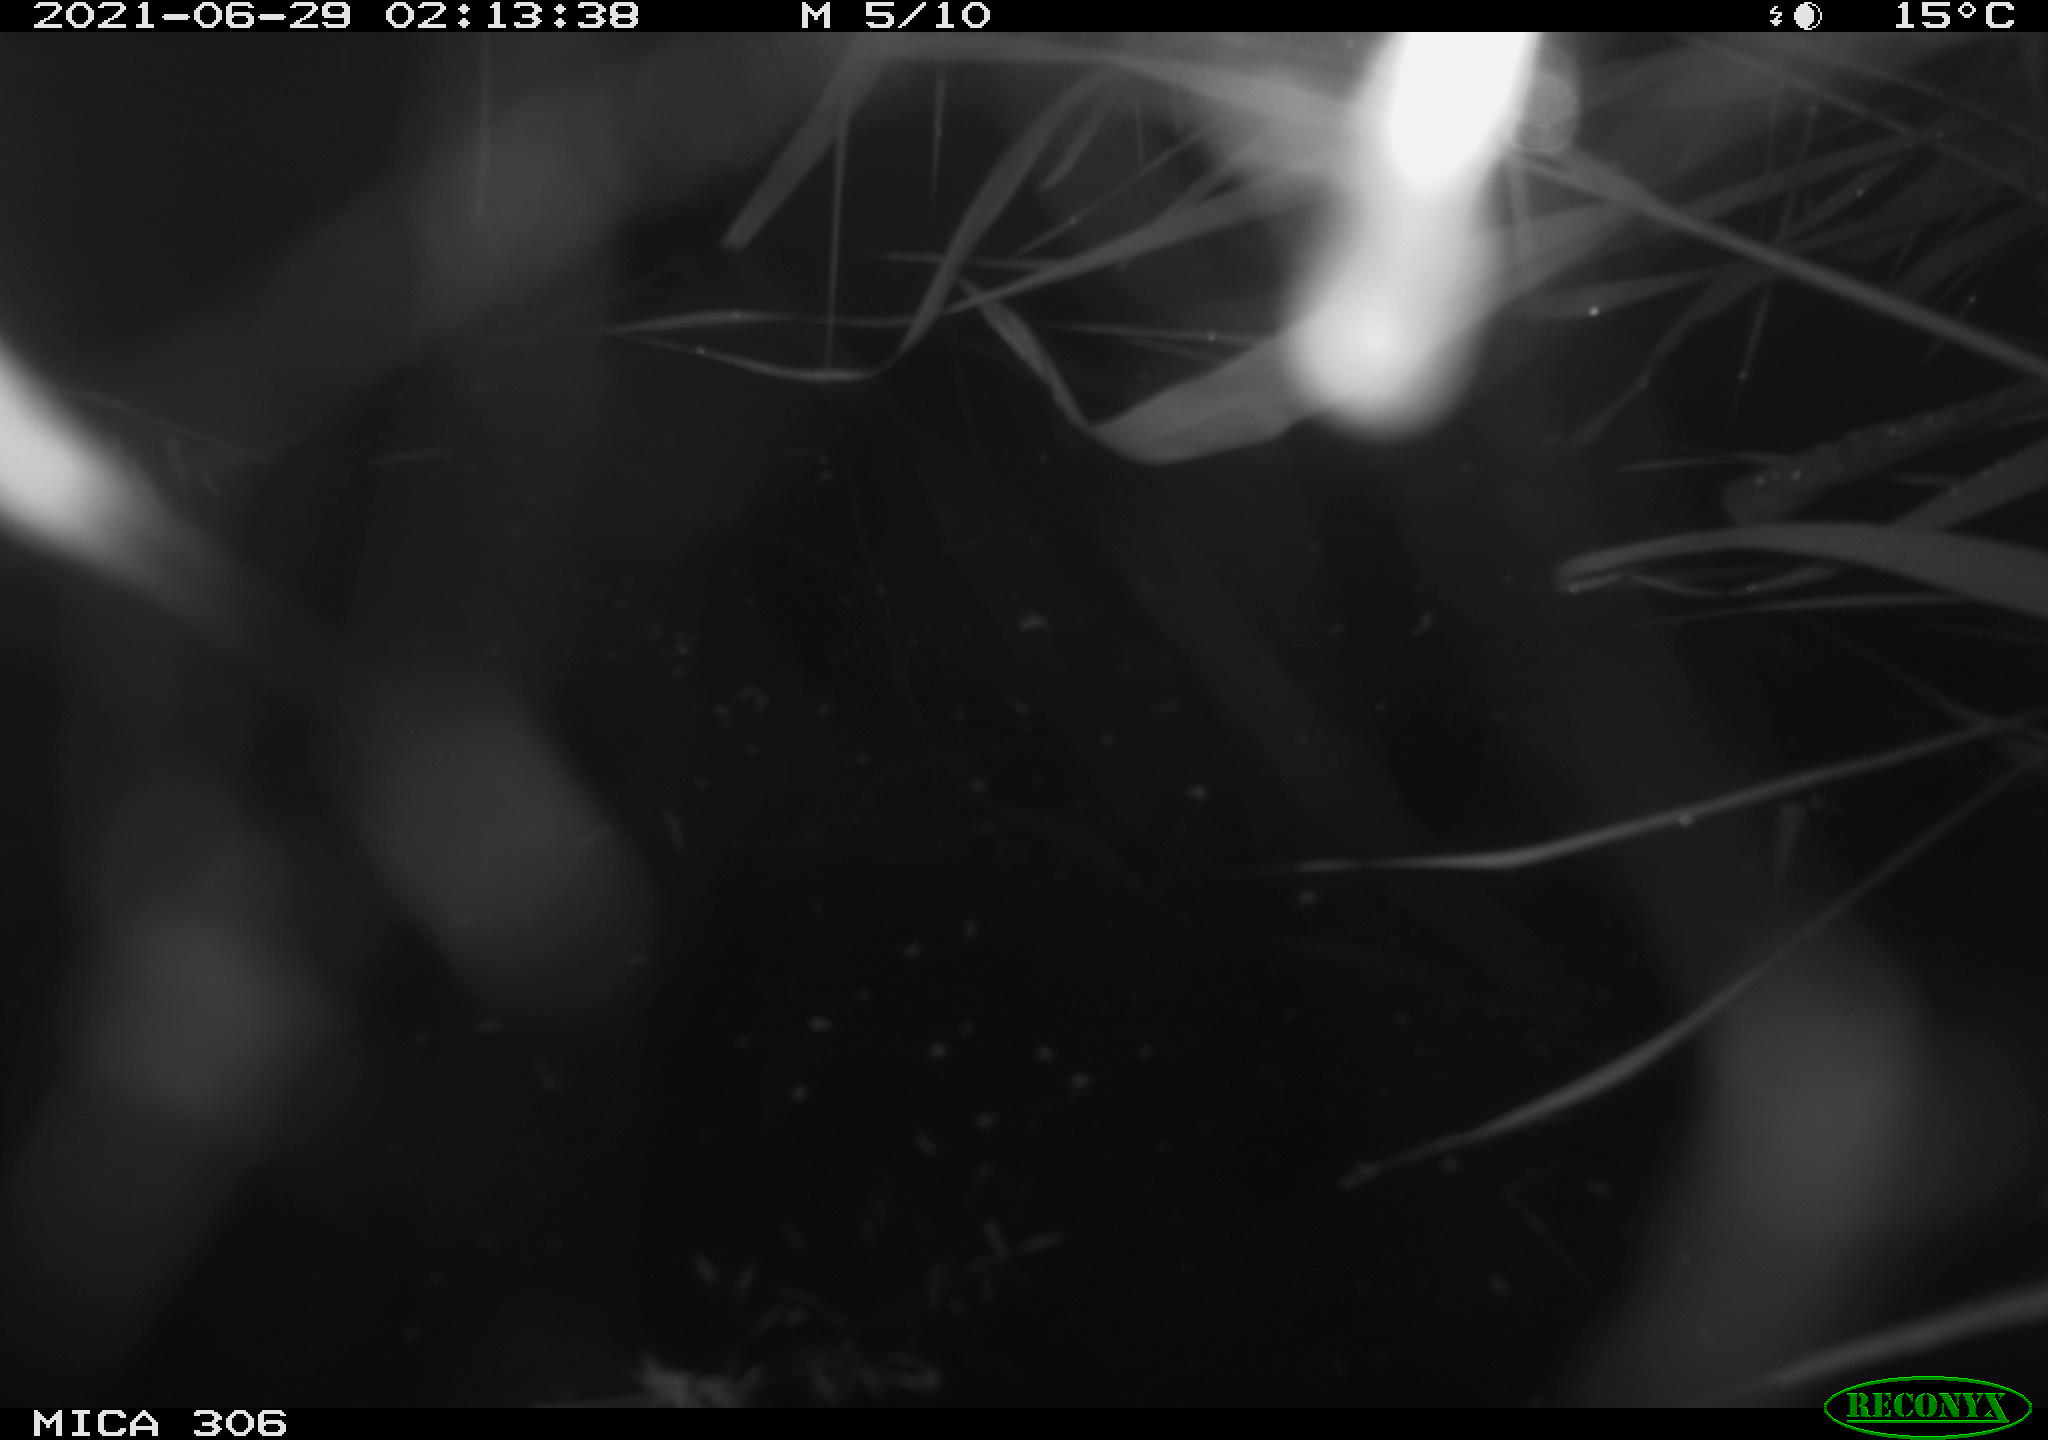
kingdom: Animalia
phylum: Chordata
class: Mammalia
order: Rodentia
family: Muridae
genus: Rattus
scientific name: Rattus norvegicus
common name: Brown rat
